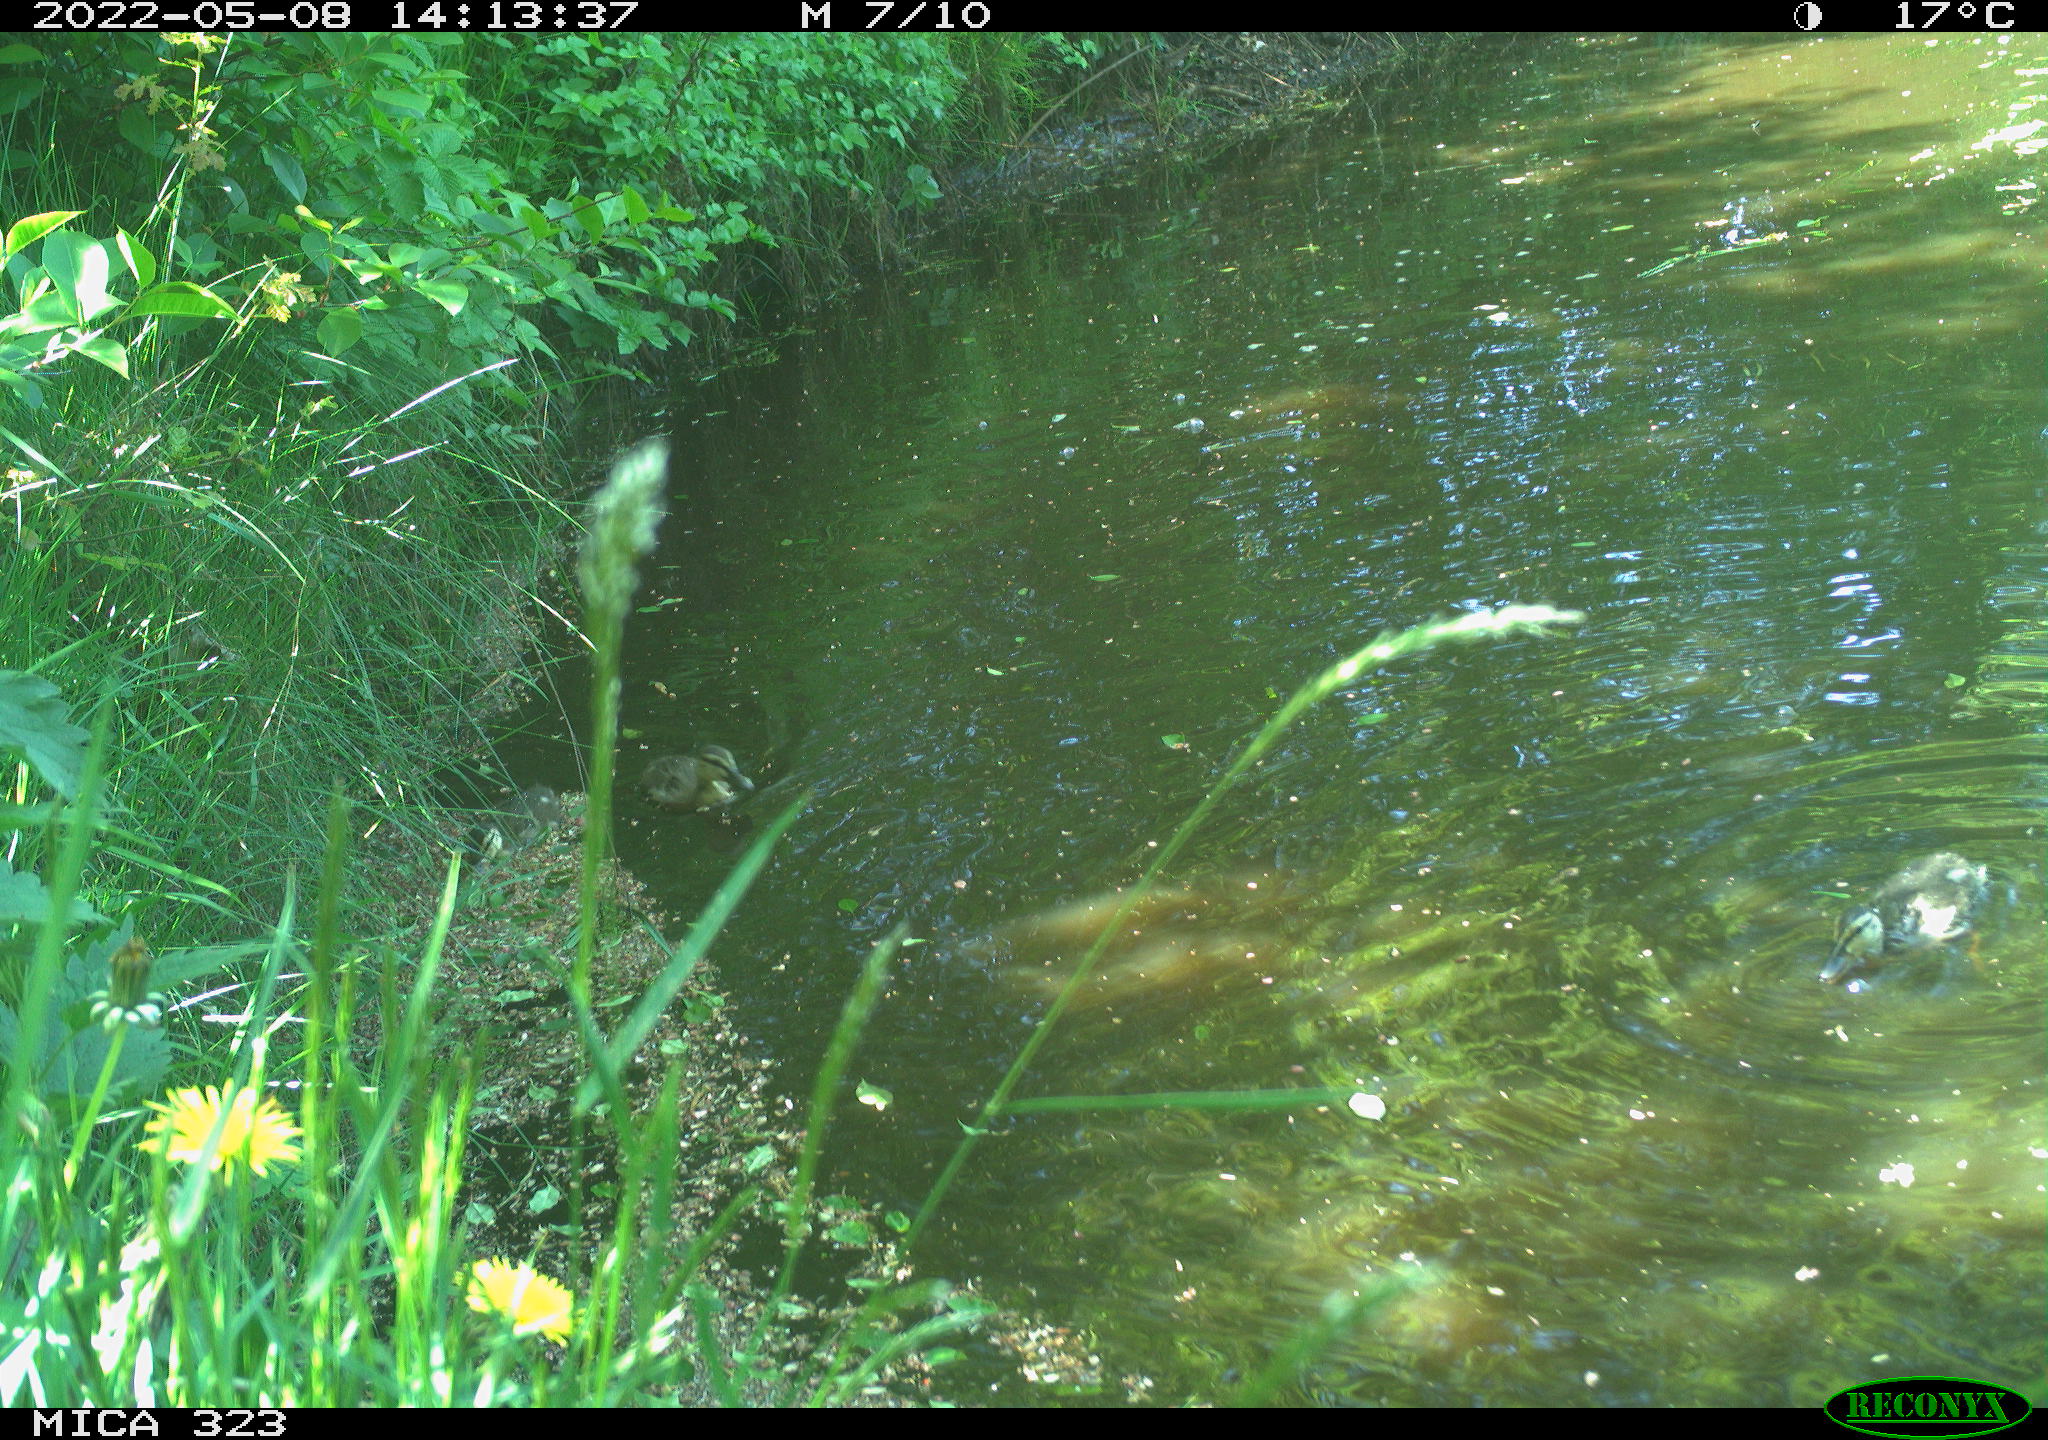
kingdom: Animalia
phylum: Chordata
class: Aves
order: Anseriformes
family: Anatidae
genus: Anas
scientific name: Anas
